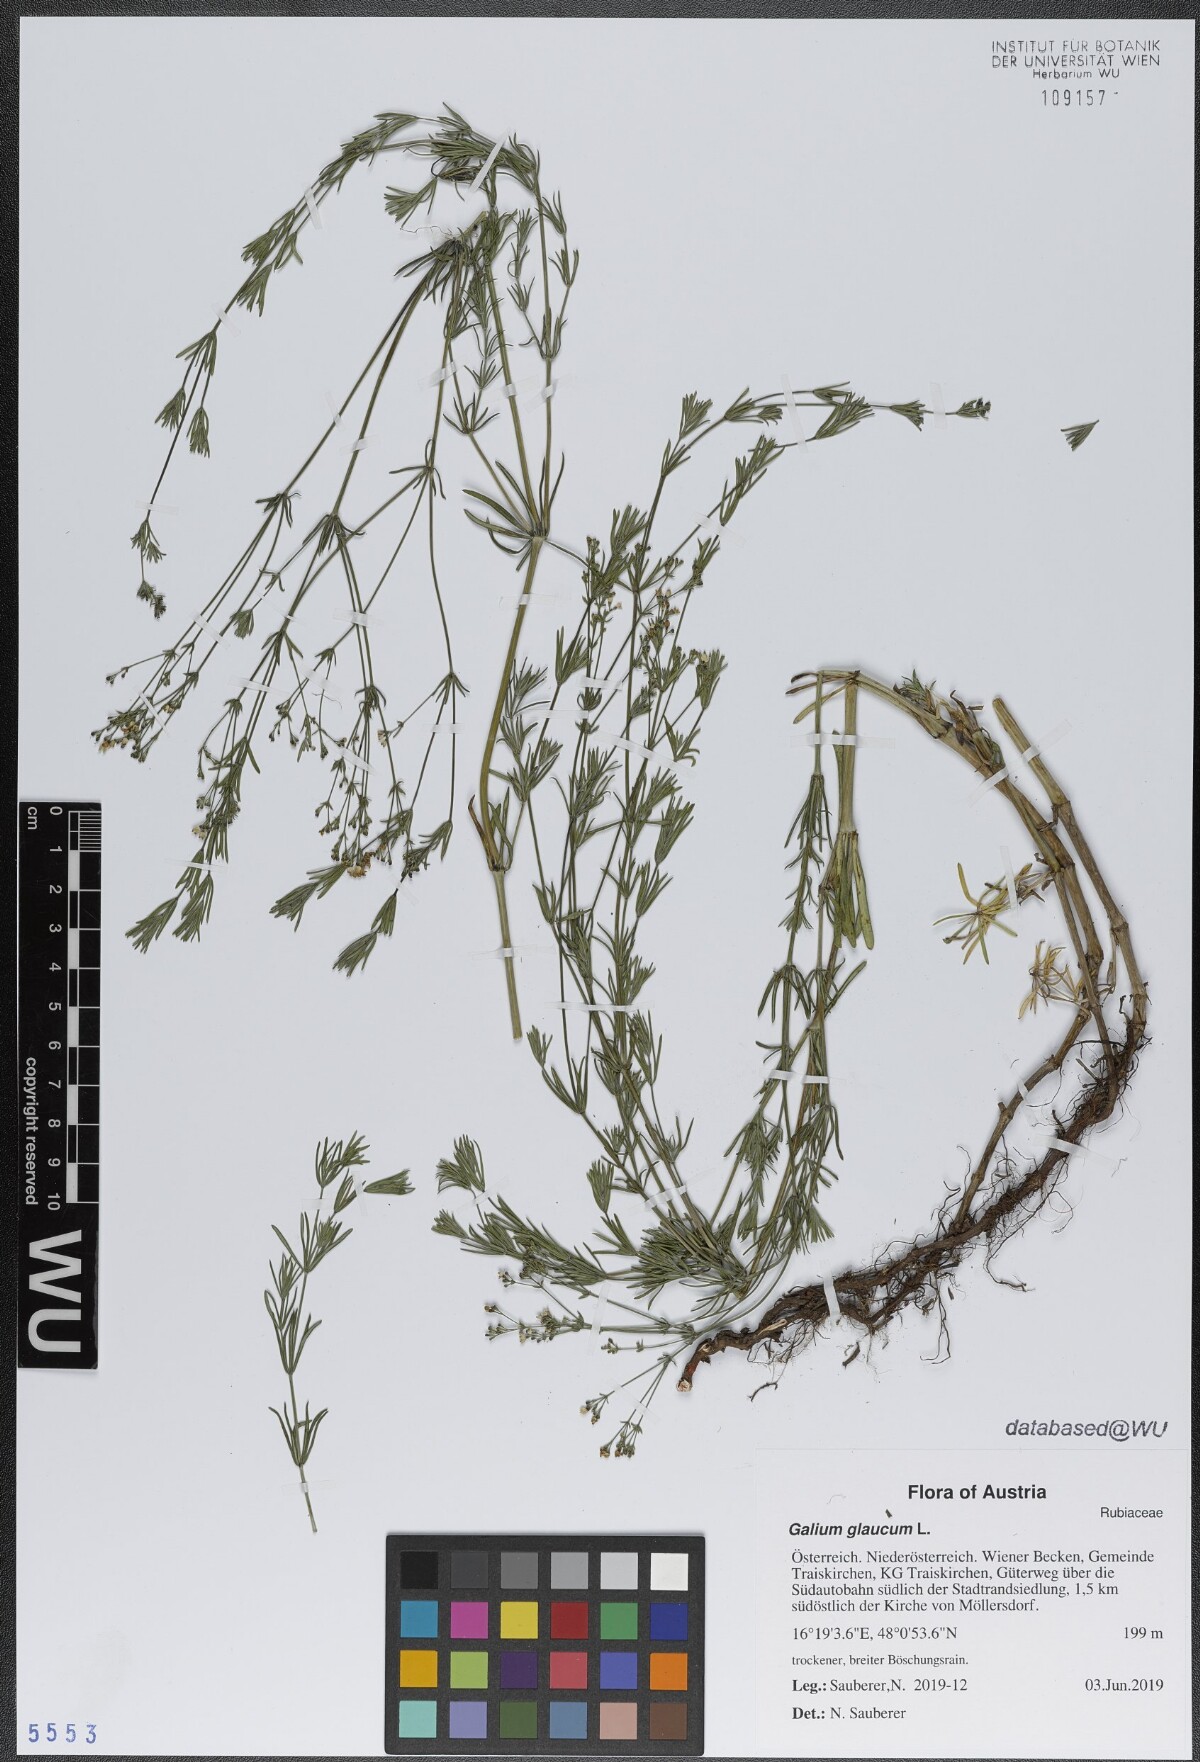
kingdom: Plantae
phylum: Tracheophyta
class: Magnoliopsida
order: Gentianales
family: Rubiaceae
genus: Galium
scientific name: Galium glaucum
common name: Waxy bedstraw
